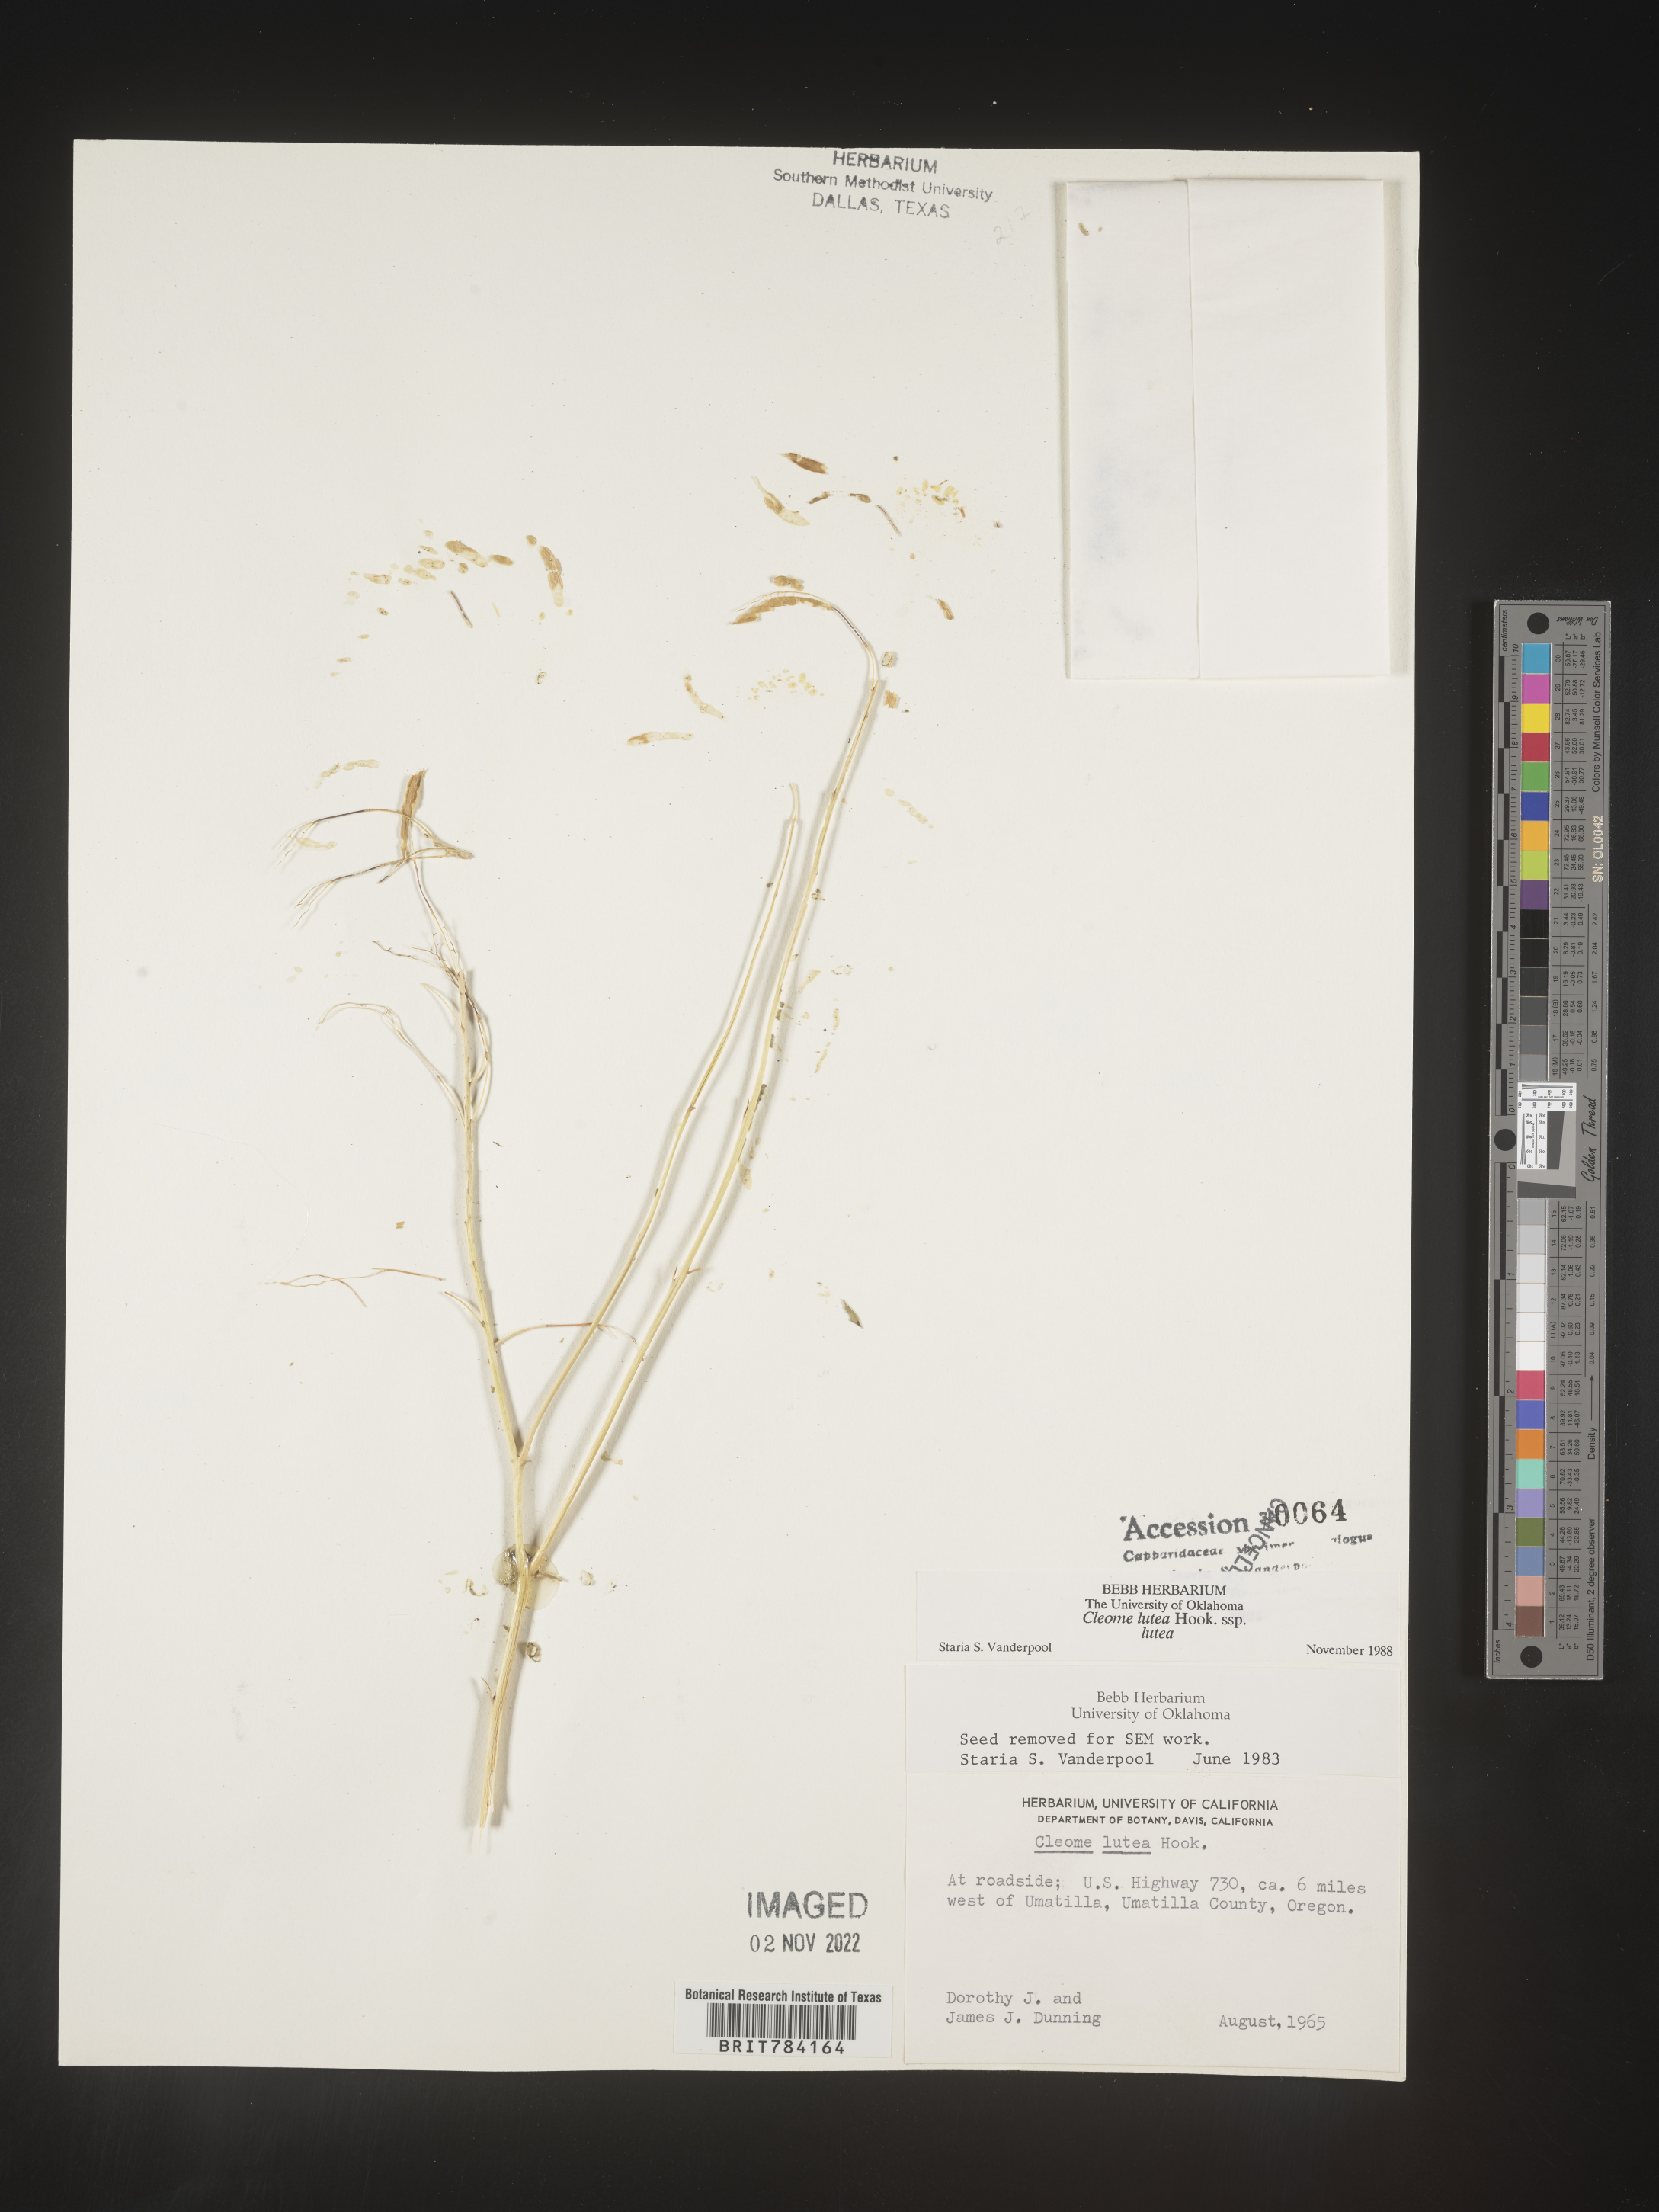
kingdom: Plantae
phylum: Tracheophyta
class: Magnoliopsida
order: Brassicales
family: Cleomaceae
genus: Cleomella
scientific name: Cleomella lutea
